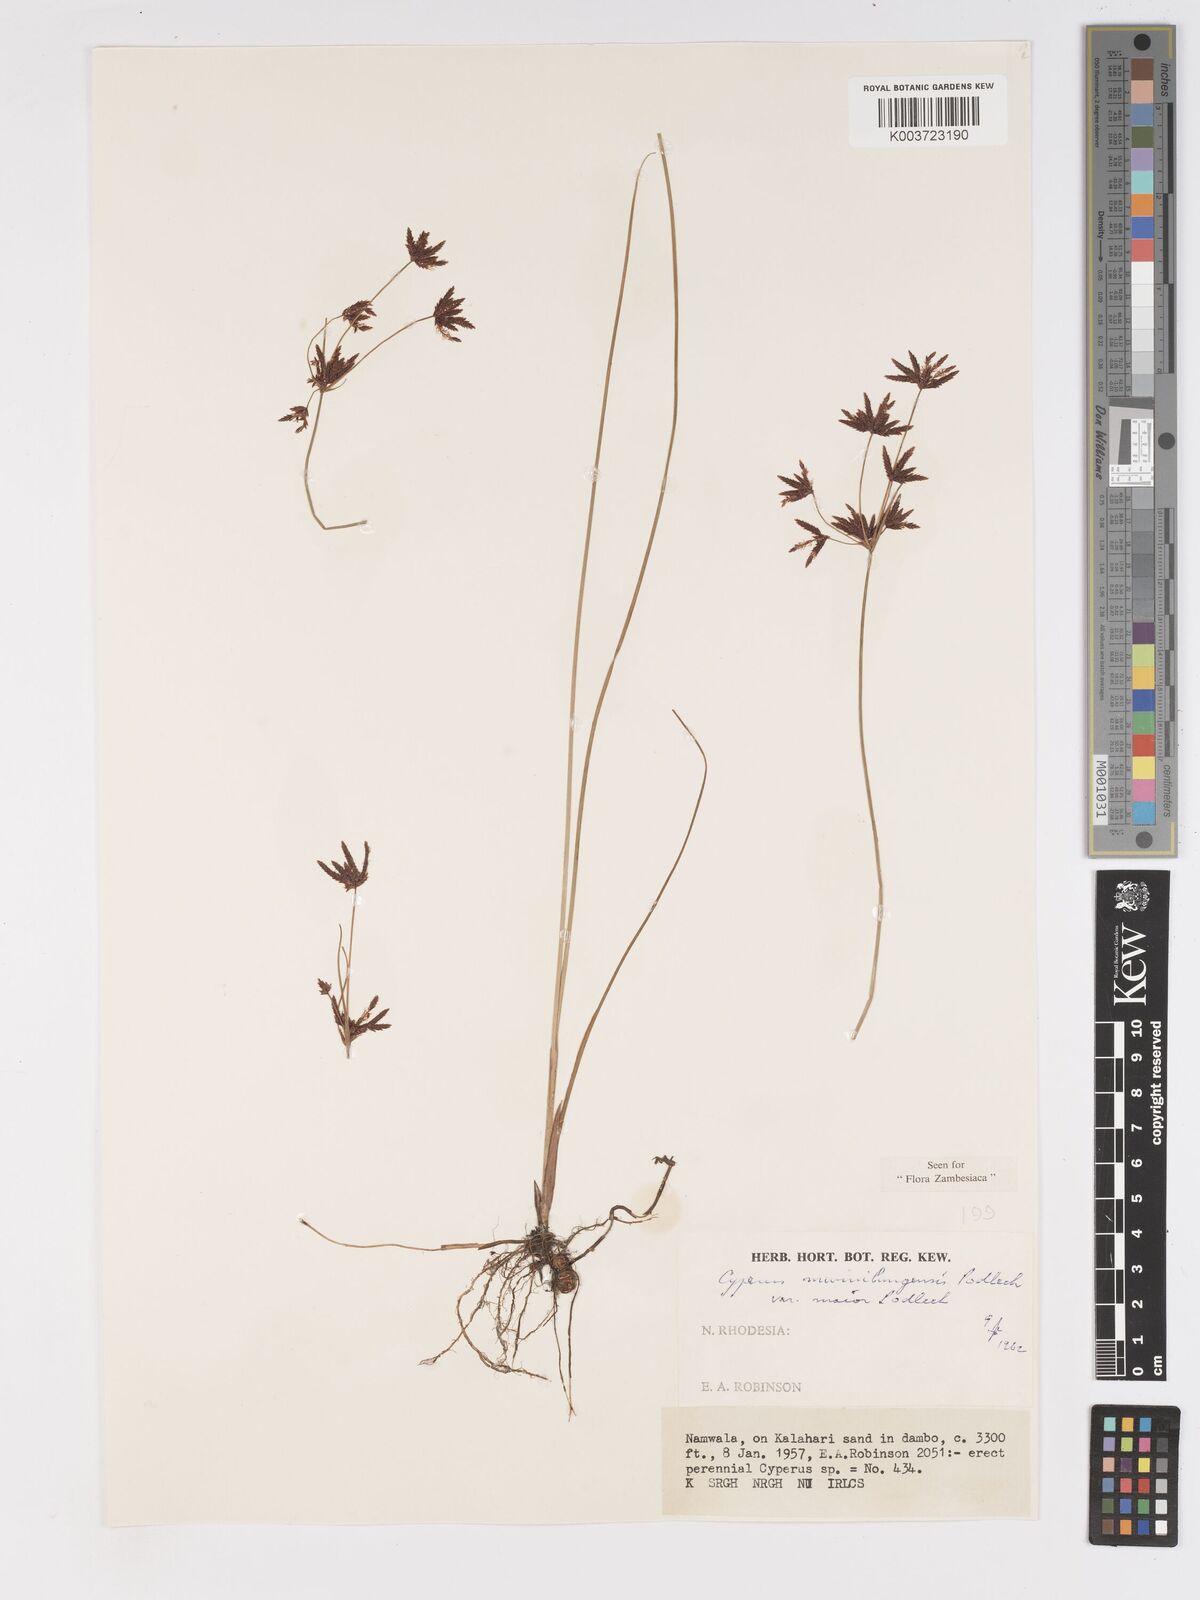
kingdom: Plantae
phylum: Tracheophyta
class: Liliopsida
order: Poales
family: Cyperaceae
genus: Cyperus
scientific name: Cyperus mwinilungensis
